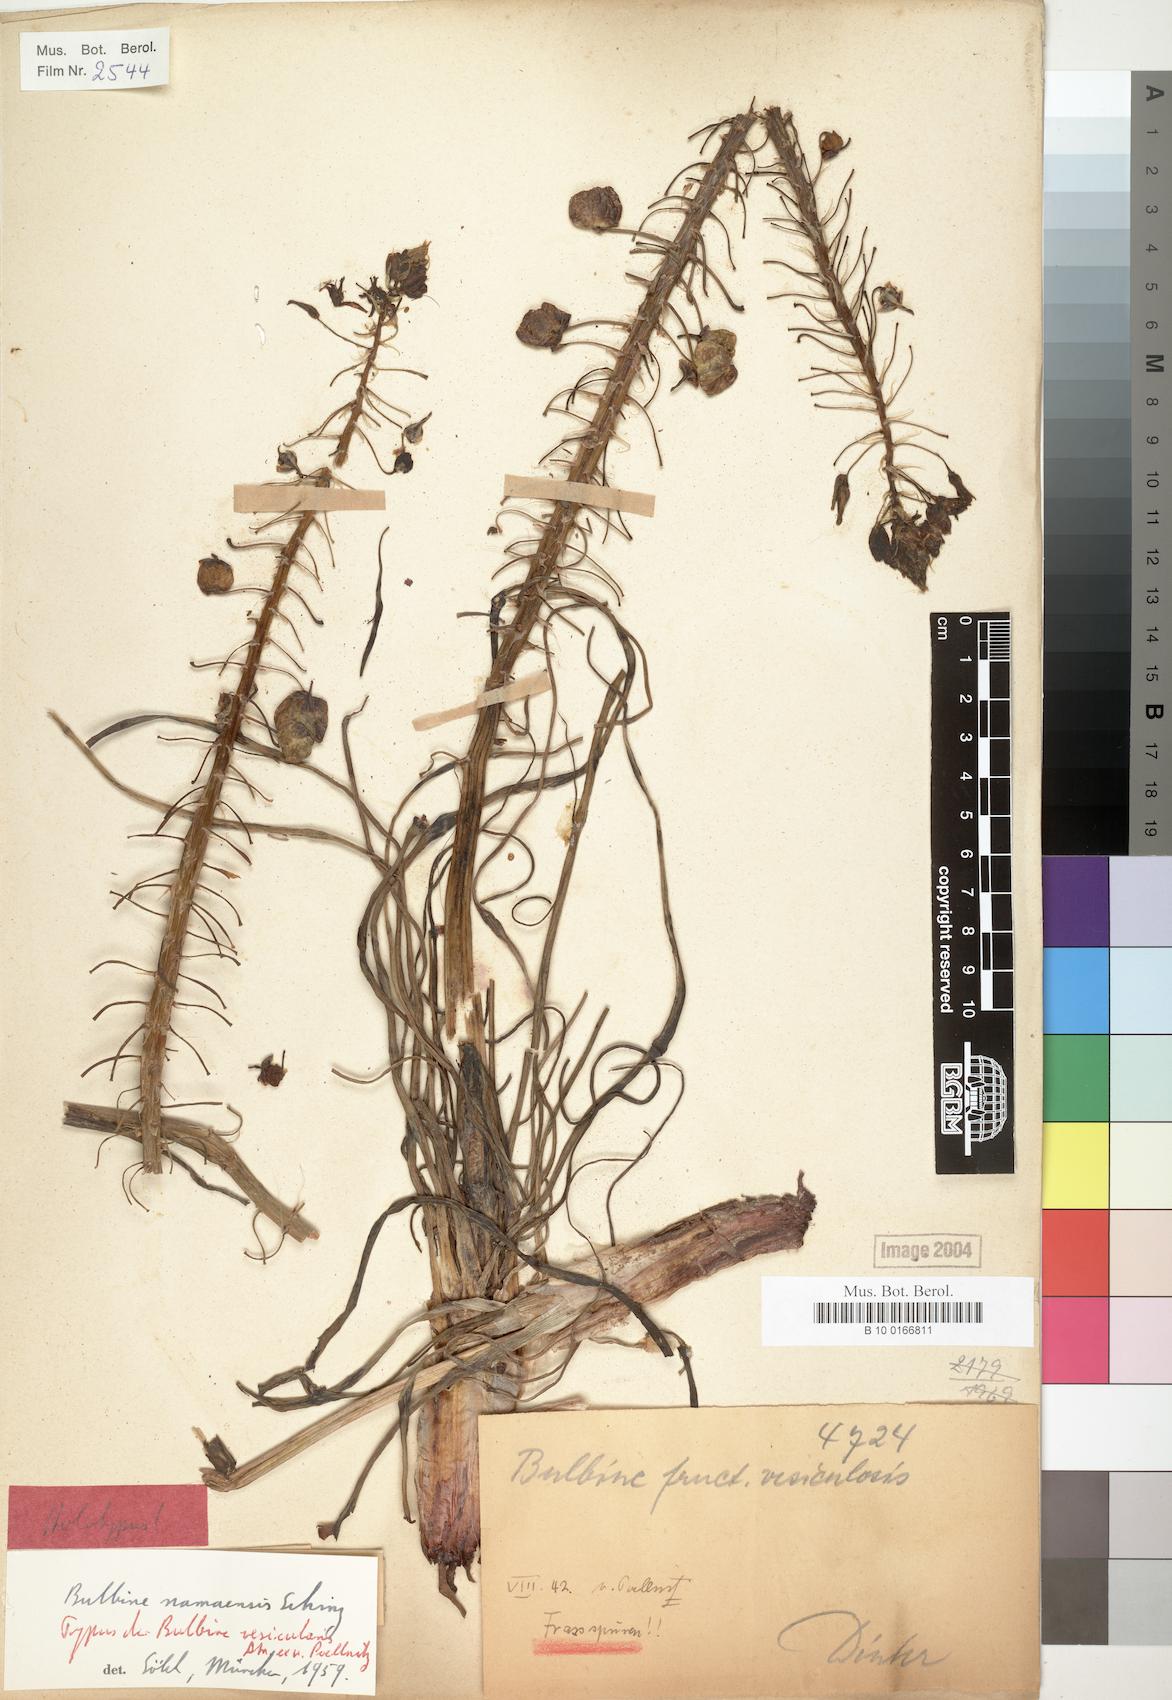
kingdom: Plantae
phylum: Tracheophyta
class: Liliopsida
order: Asparagales
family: Asphodelaceae
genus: Bulbine
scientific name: Bulbine namaensis
